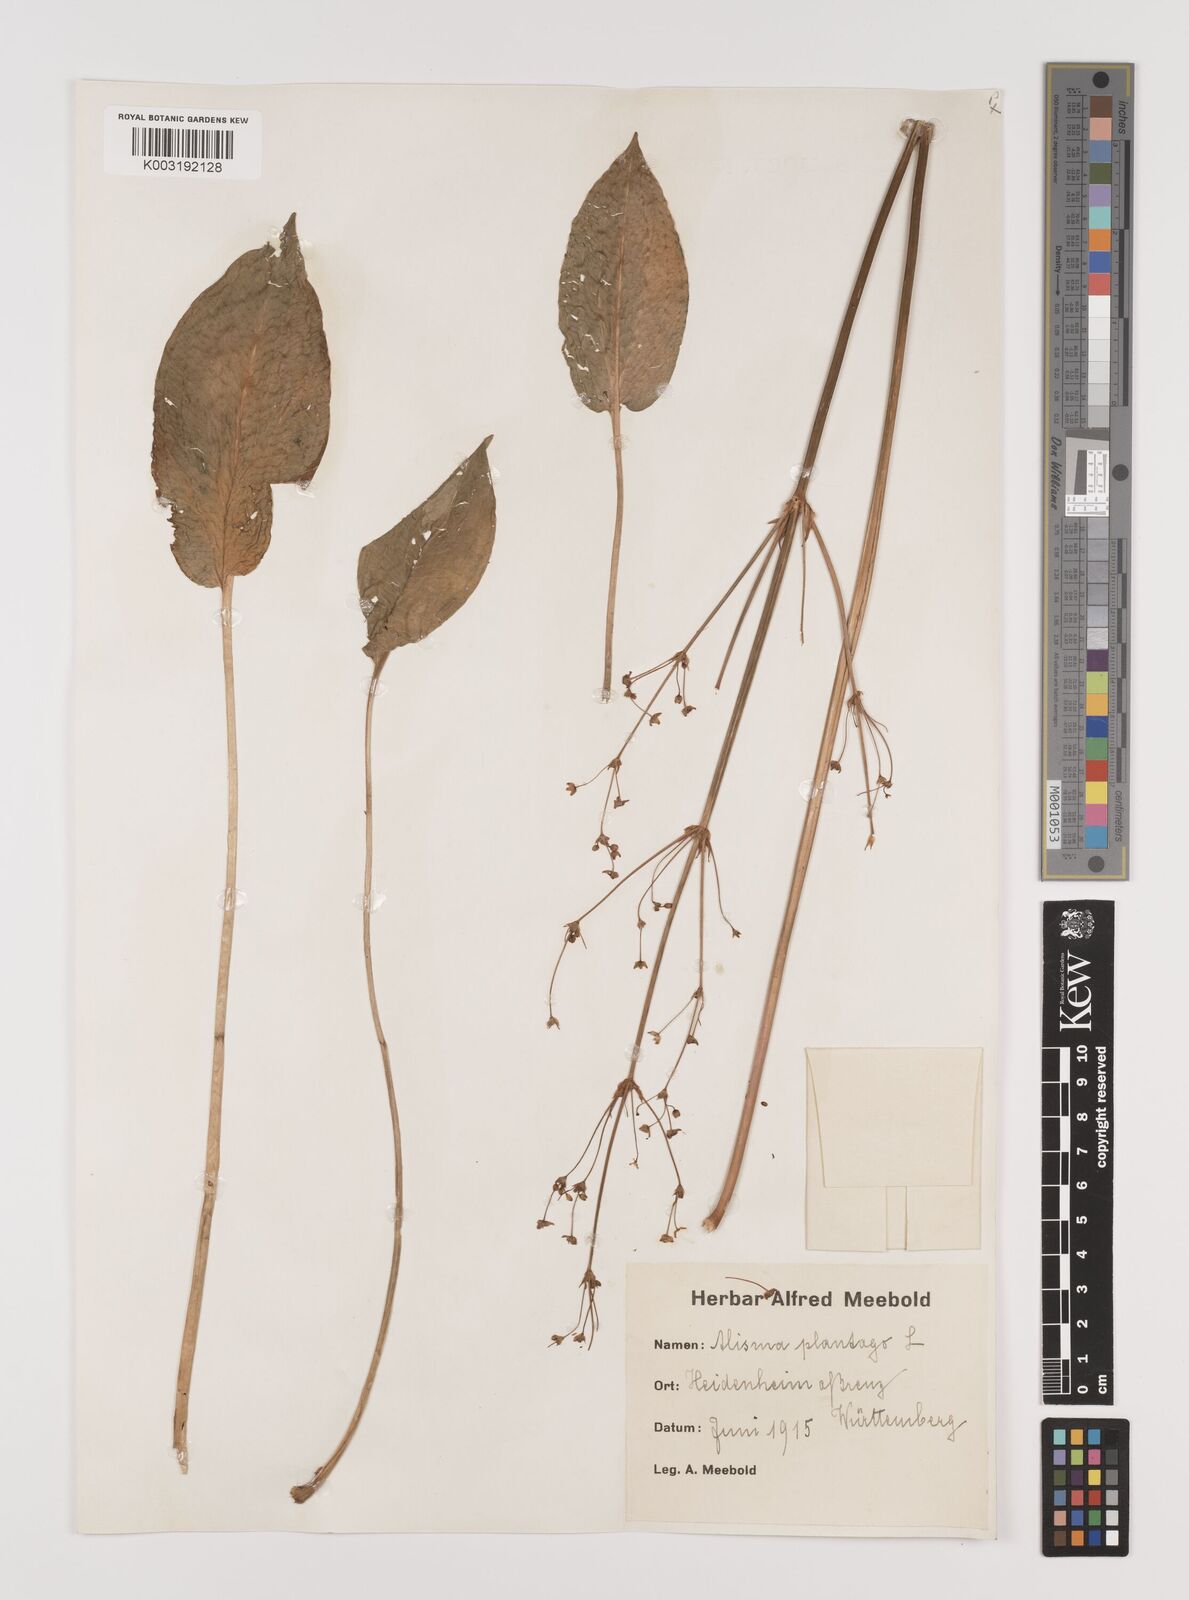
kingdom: Plantae
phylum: Tracheophyta
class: Liliopsida
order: Alismatales
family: Alismataceae
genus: Alisma
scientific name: Alisma plantago-aquatica
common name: Water-plantain
